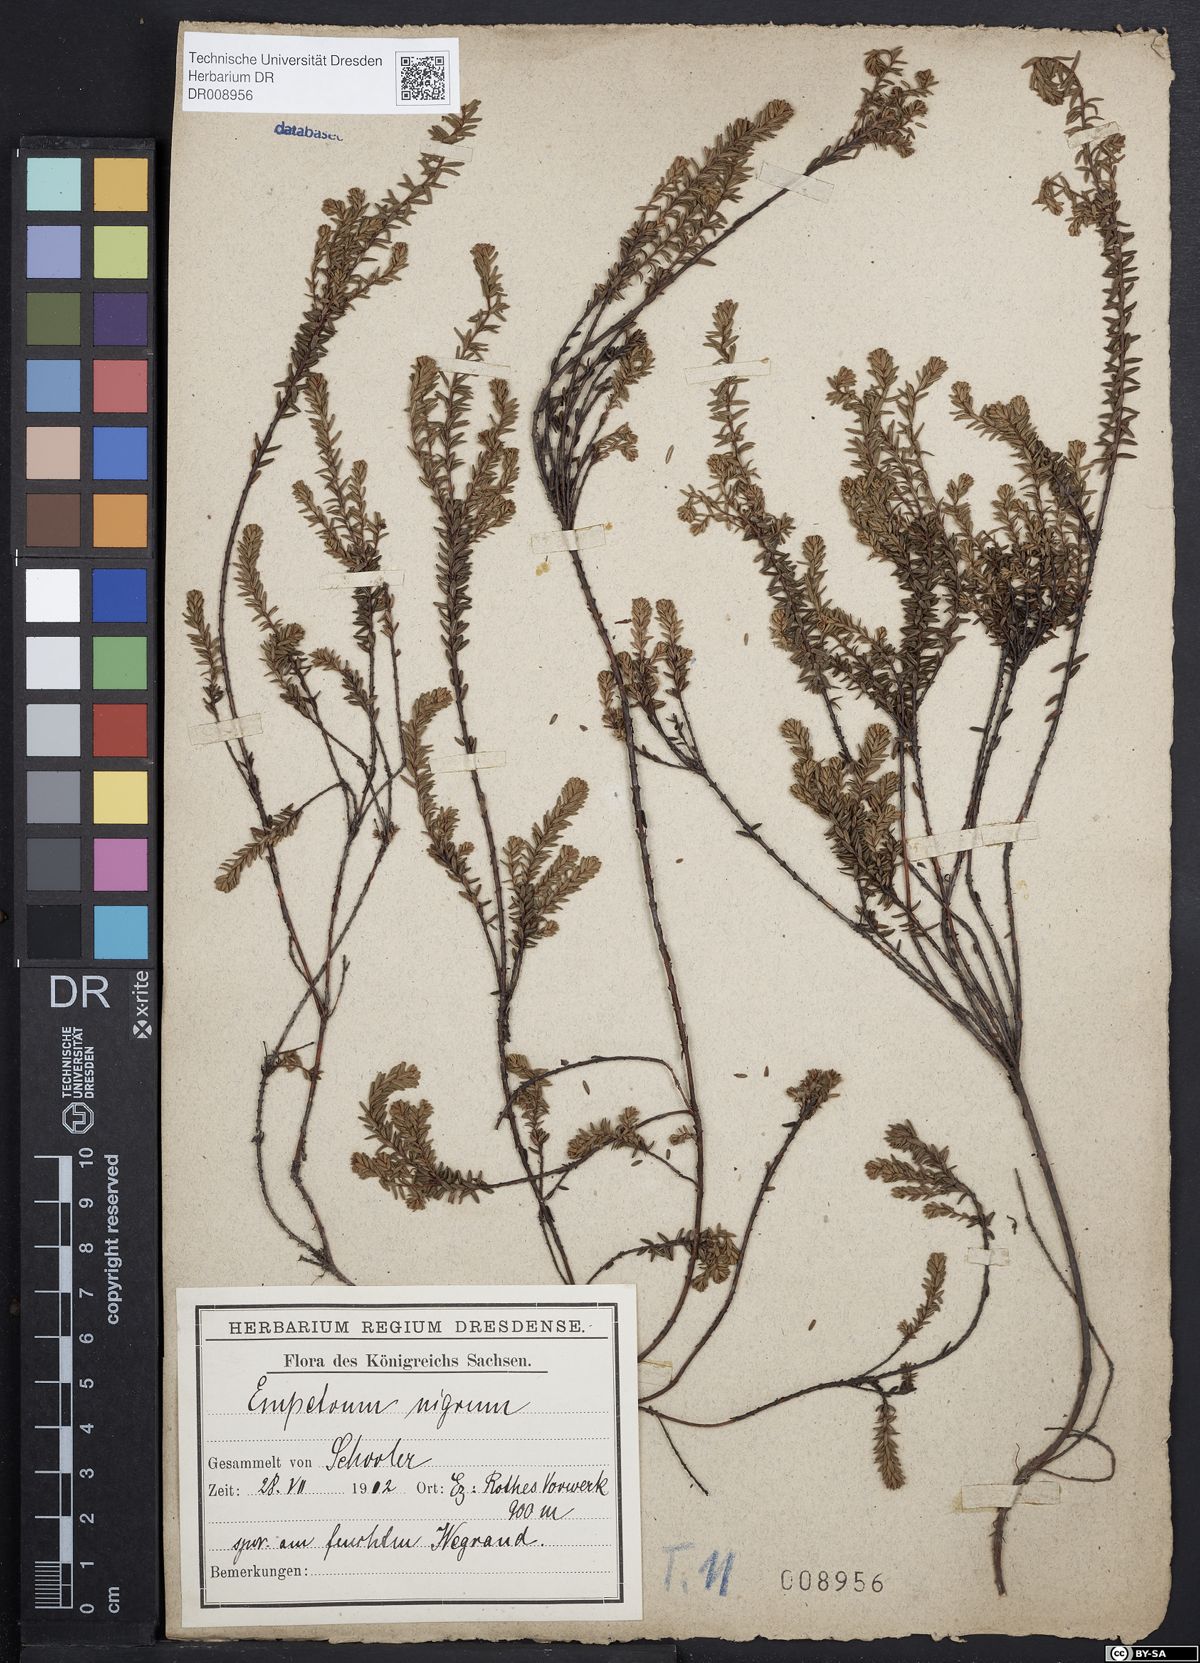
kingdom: Plantae
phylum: Tracheophyta
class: Magnoliopsida
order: Ericales
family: Ericaceae
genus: Empetrum
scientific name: Empetrum nigrum
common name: Black crowberry
